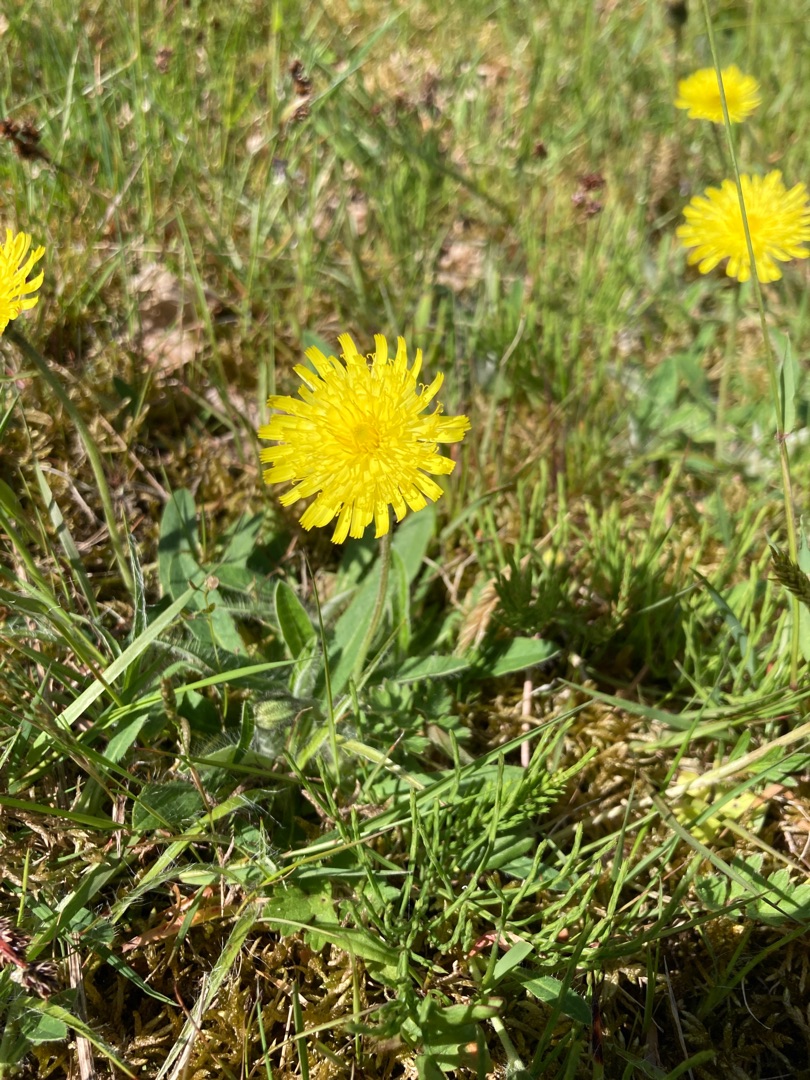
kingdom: Plantae
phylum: Tracheophyta
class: Magnoliopsida
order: Asterales
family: Asteraceae
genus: Pilosella
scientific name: Pilosella officinarum
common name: Håret høgeurt
